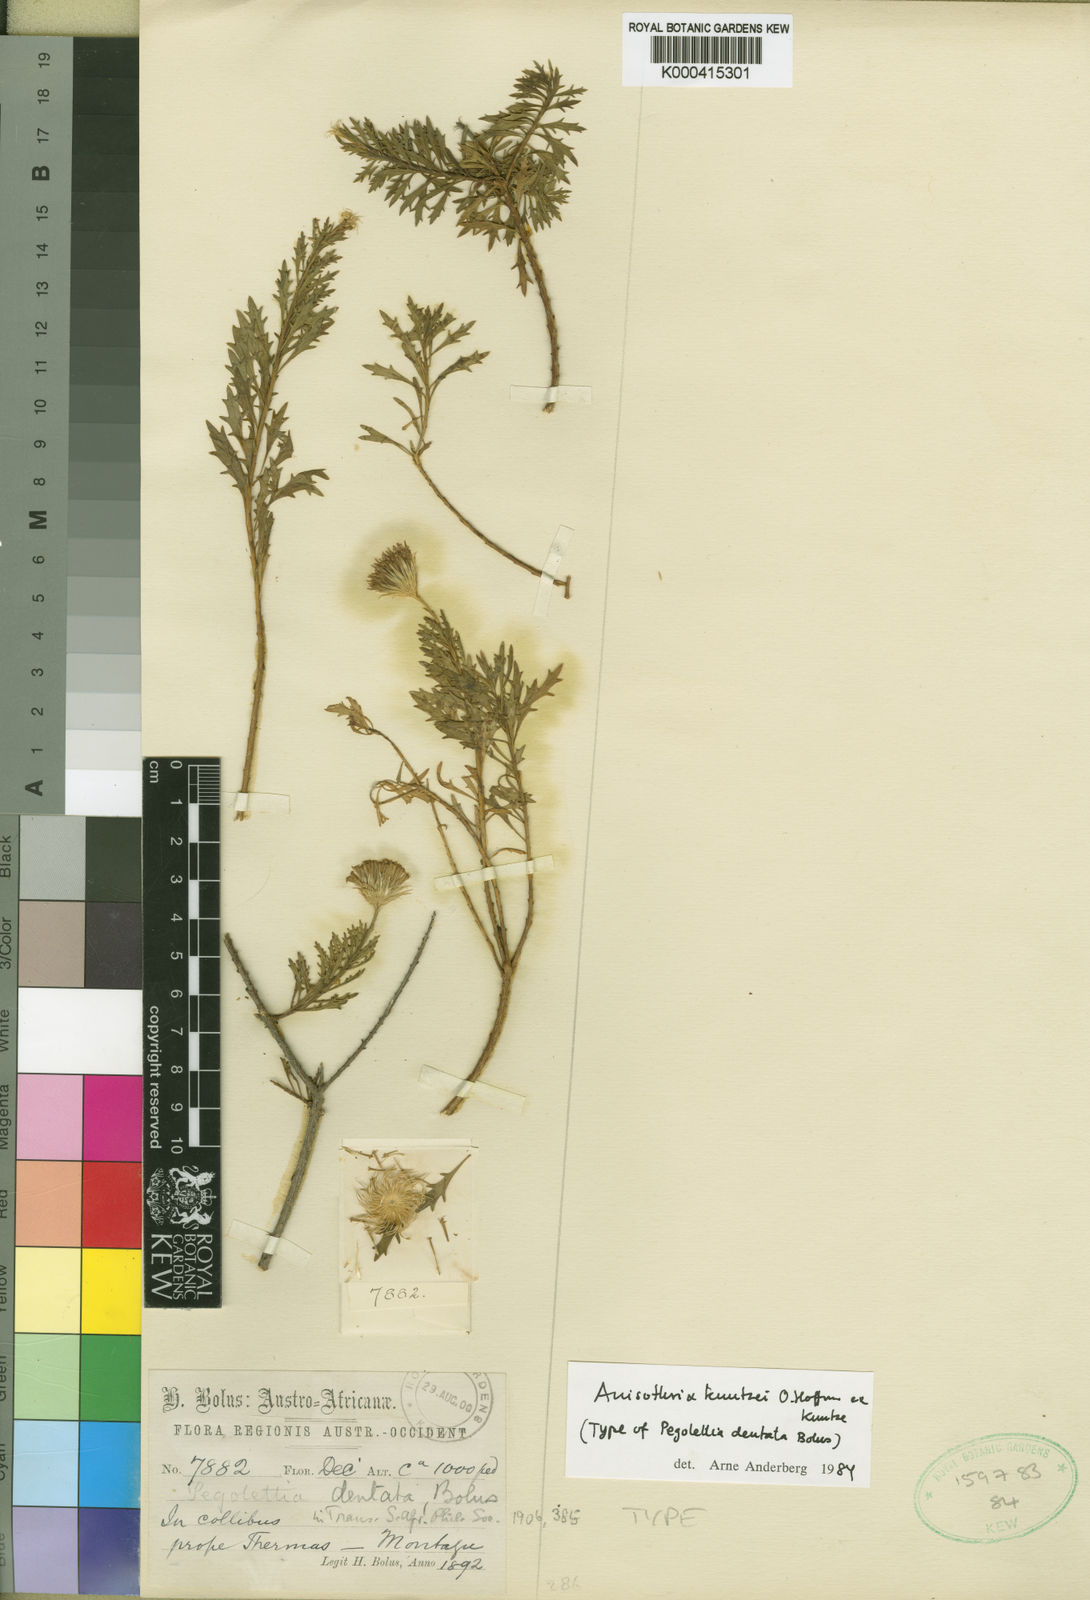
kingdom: Plantae
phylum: Tracheophyta
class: Magnoliopsida
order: Asterales
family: Asteraceae
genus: Pentatrichia
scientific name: Pentatrichia kuntzei
